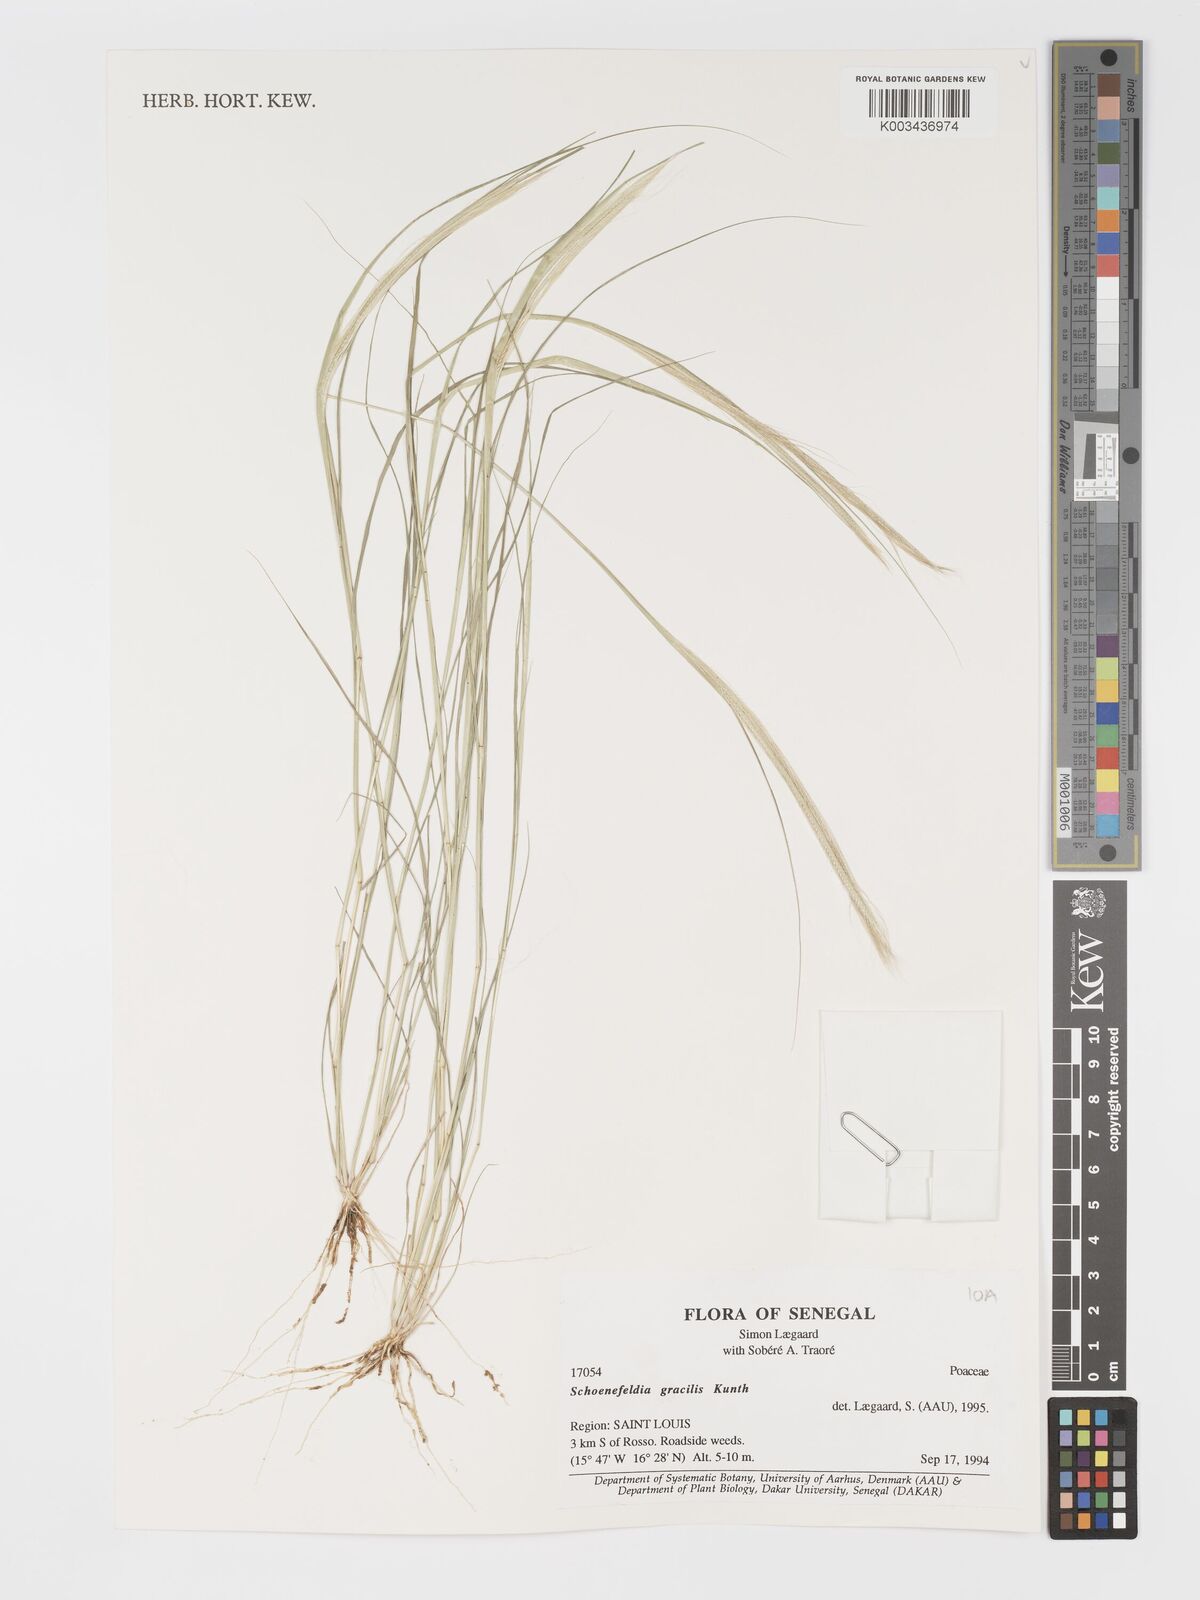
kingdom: Plantae
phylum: Tracheophyta
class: Liliopsida
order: Poales
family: Poaceae
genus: Schoenefeldia
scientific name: Schoenefeldia gracilis
